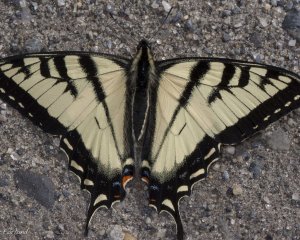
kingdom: Animalia
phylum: Arthropoda
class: Insecta
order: Lepidoptera
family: Papilionidae
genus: Pterourus
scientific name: Pterourus canadensis
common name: Canadian Tiger Swallowtail
